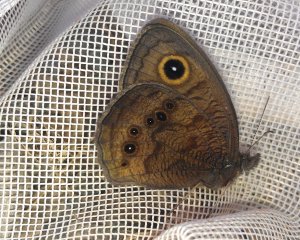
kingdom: Animalia
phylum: Arthropoda
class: Insecta
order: Lepidoptera
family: Nymphalidae
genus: Cercyonis
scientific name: Cercyonis pegala
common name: Common Wood-Nymph
